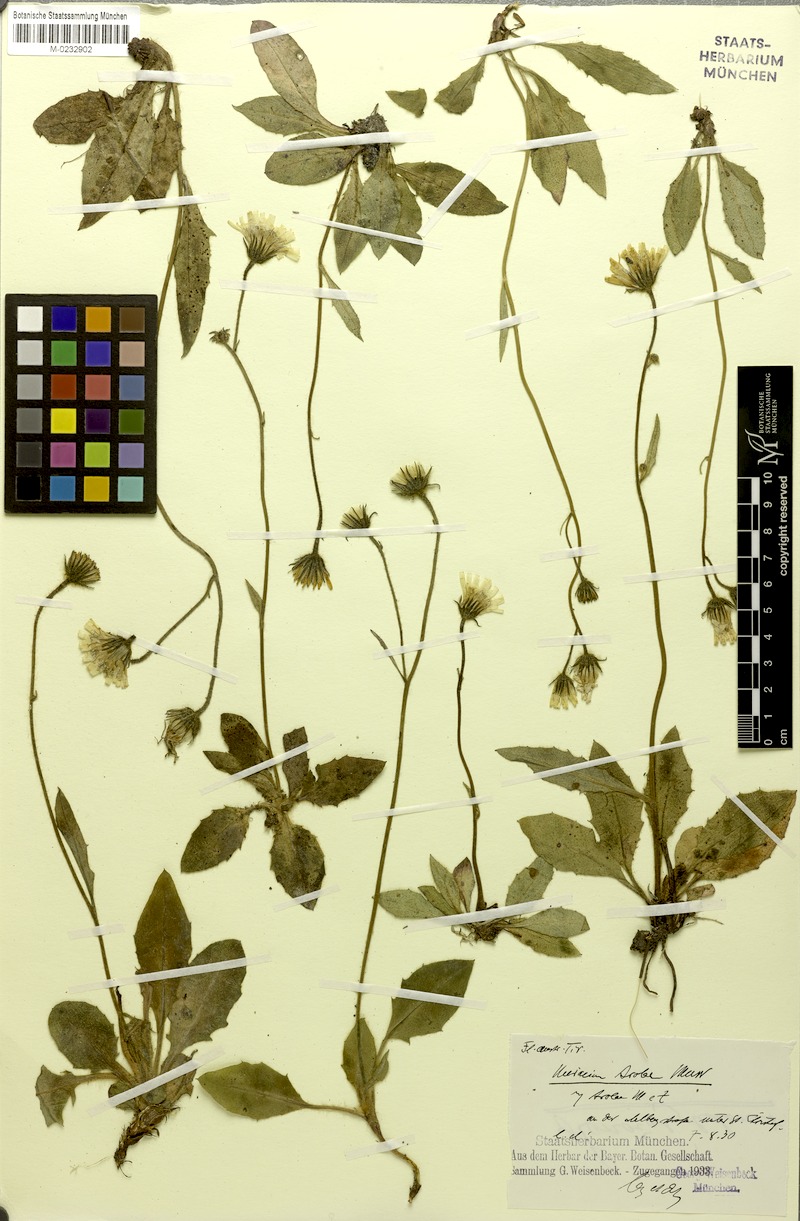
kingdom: Plantae
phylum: Tracheophyta
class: Magnoliopsida
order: Asterales
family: Asteraceae
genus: Hieracium
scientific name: Hieracium arolae
